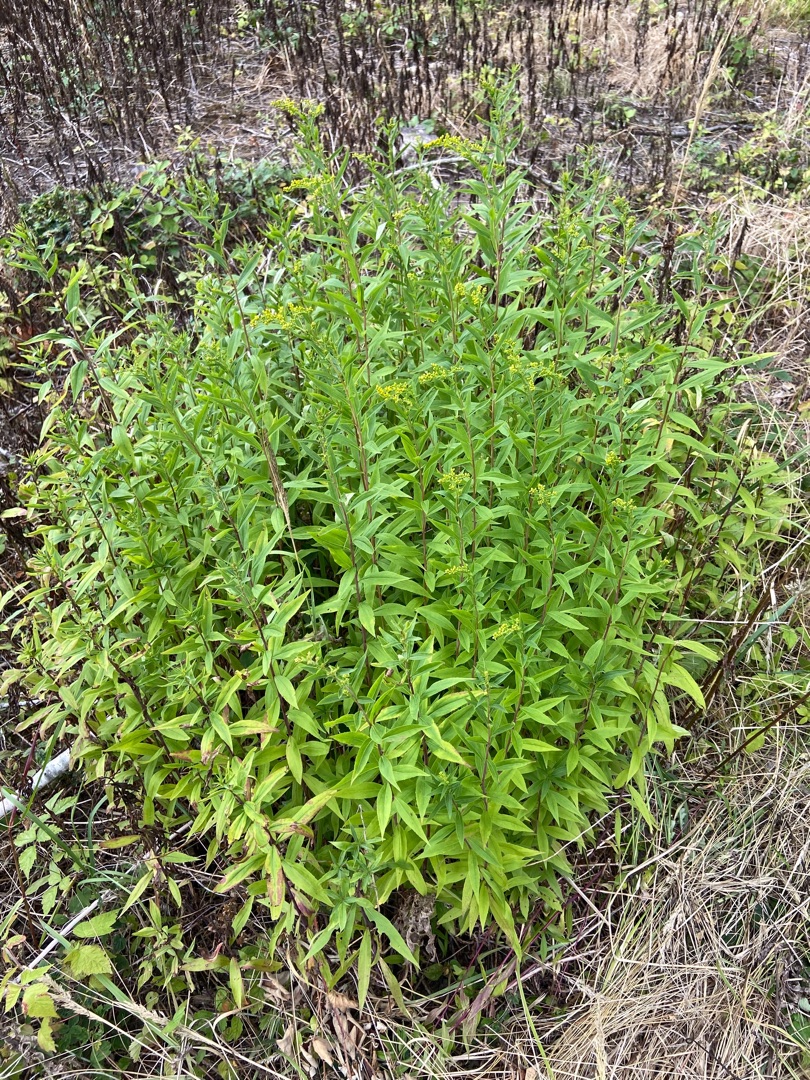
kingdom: Plantae
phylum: Tracheophyta
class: Magnoliopsida
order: Asterales
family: Asteraceae
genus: Solidago
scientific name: Solidago gigantea
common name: Sildig gyldenris
